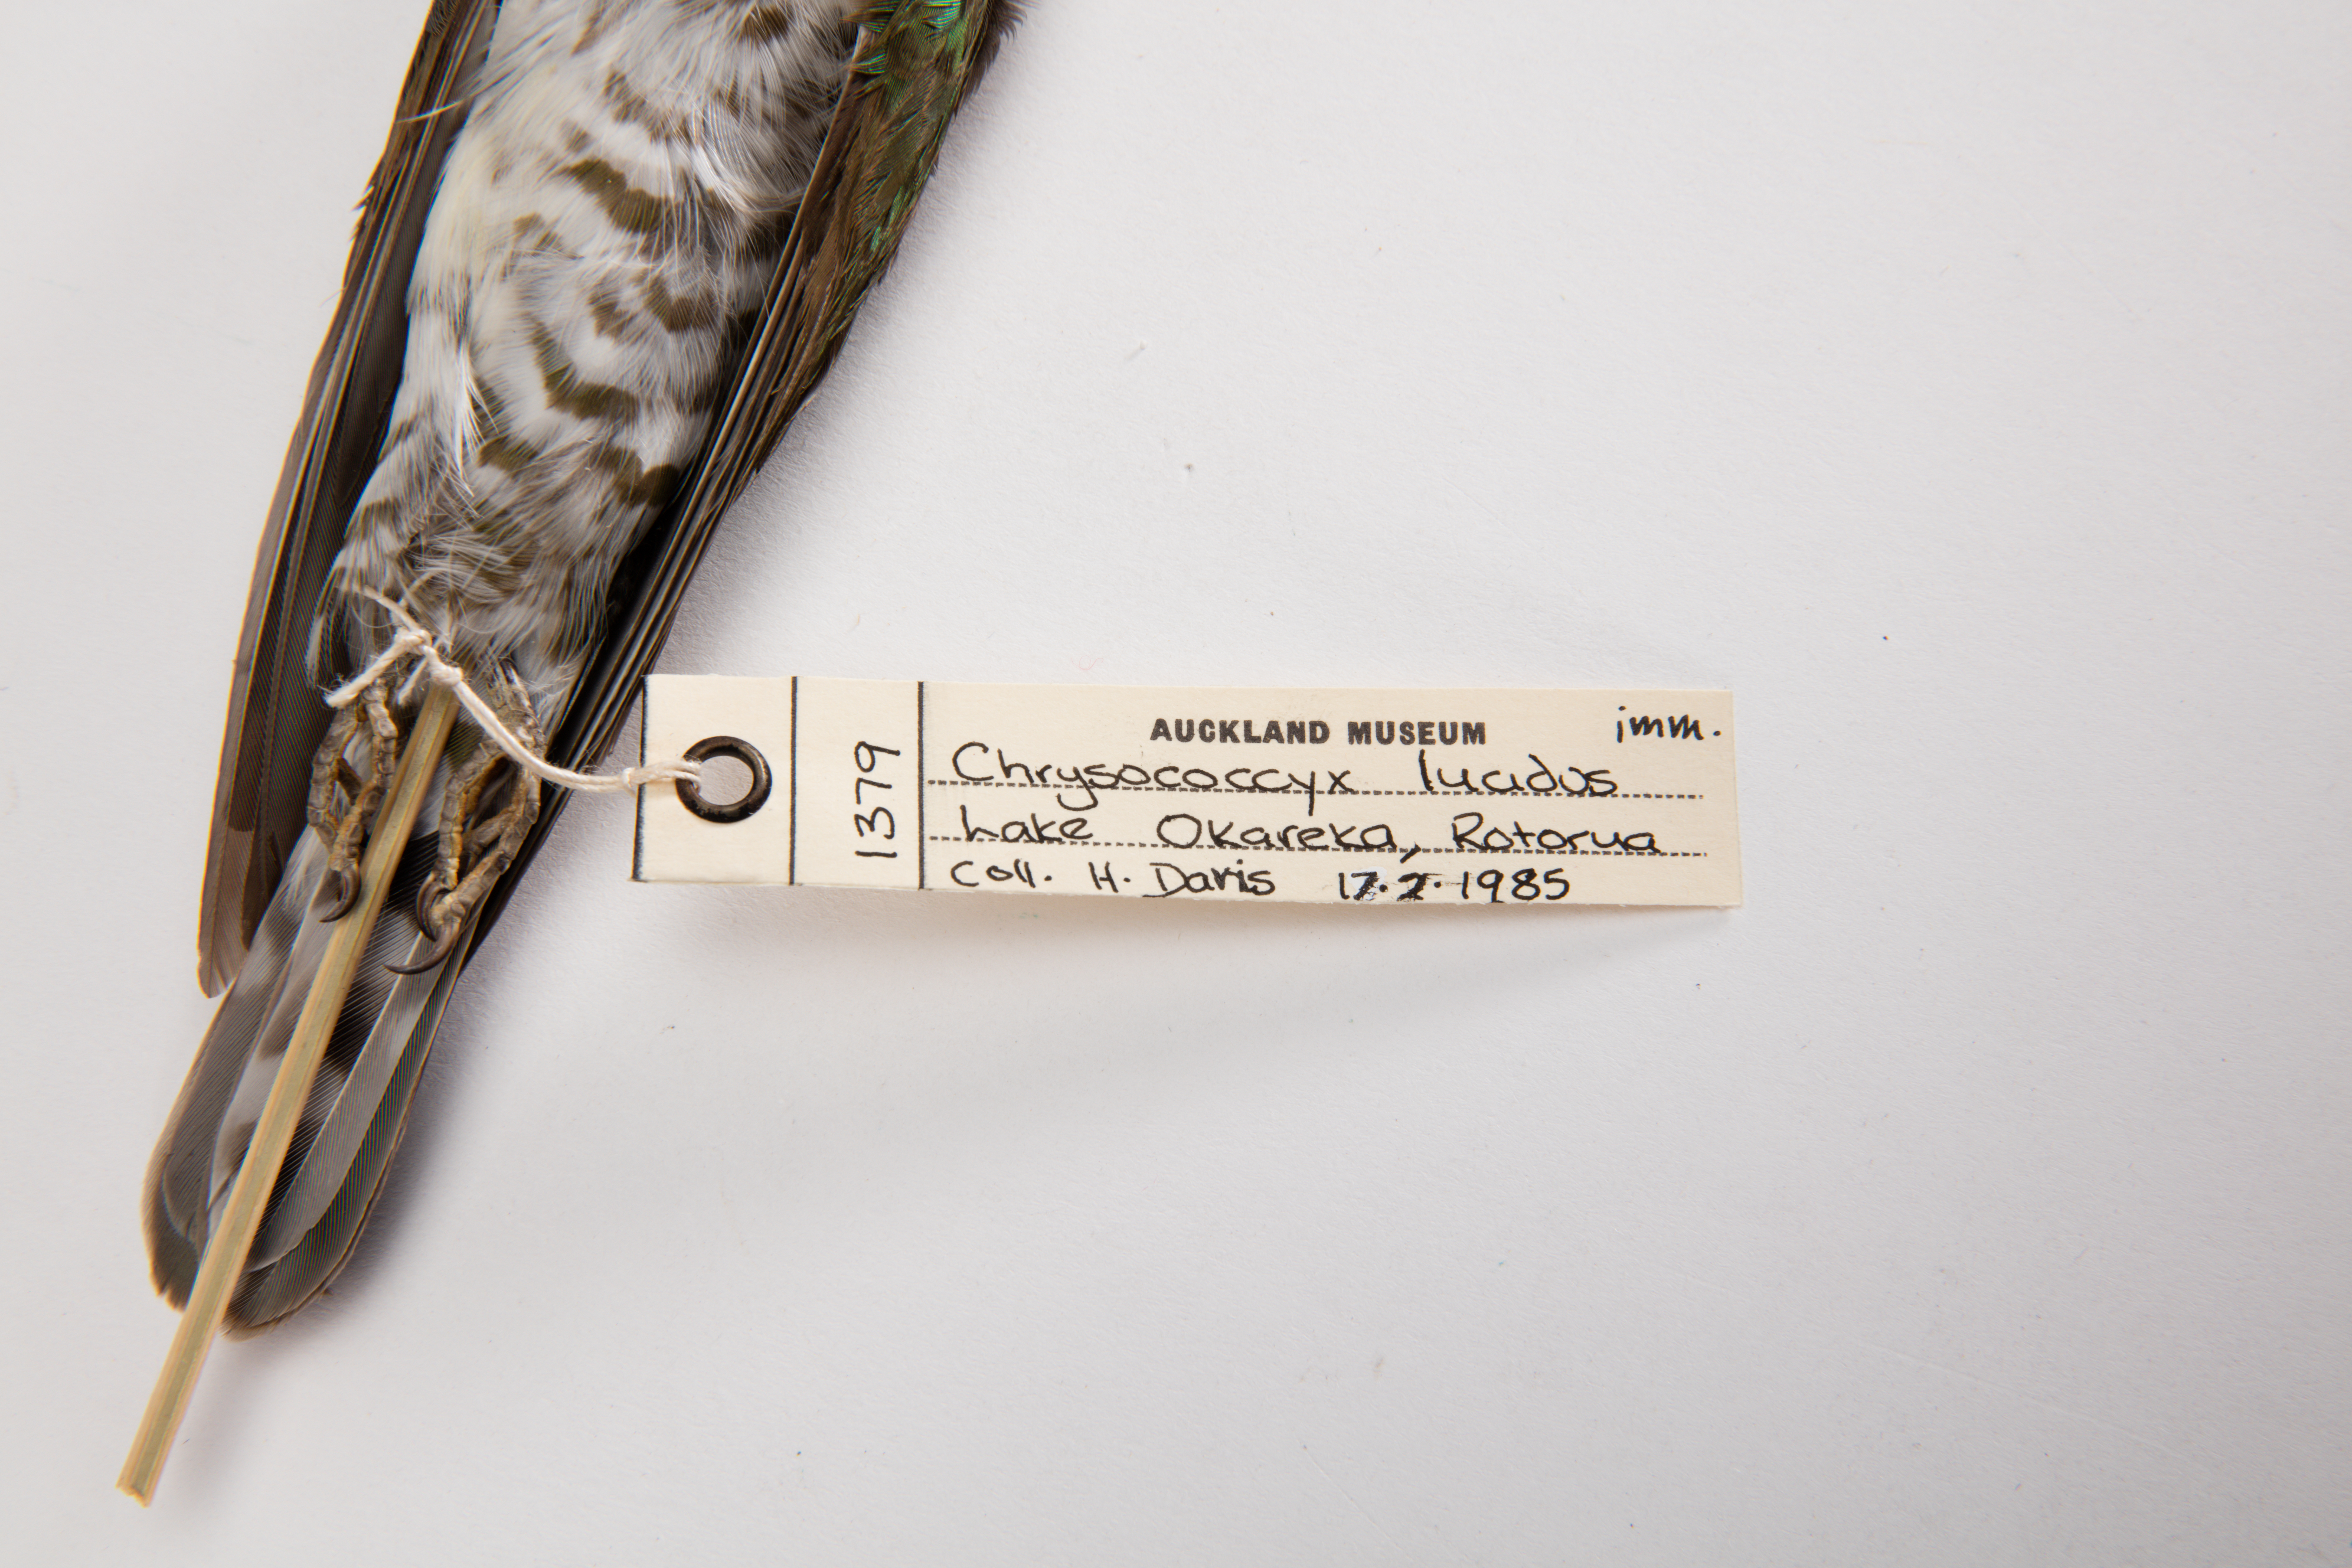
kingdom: Animalia
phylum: Chordata
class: Aves
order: Cuculiformes
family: Cuculidae
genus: Chrysococcyx
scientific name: Chrysococcyx lucidus
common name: Shining bronze cuckoo
